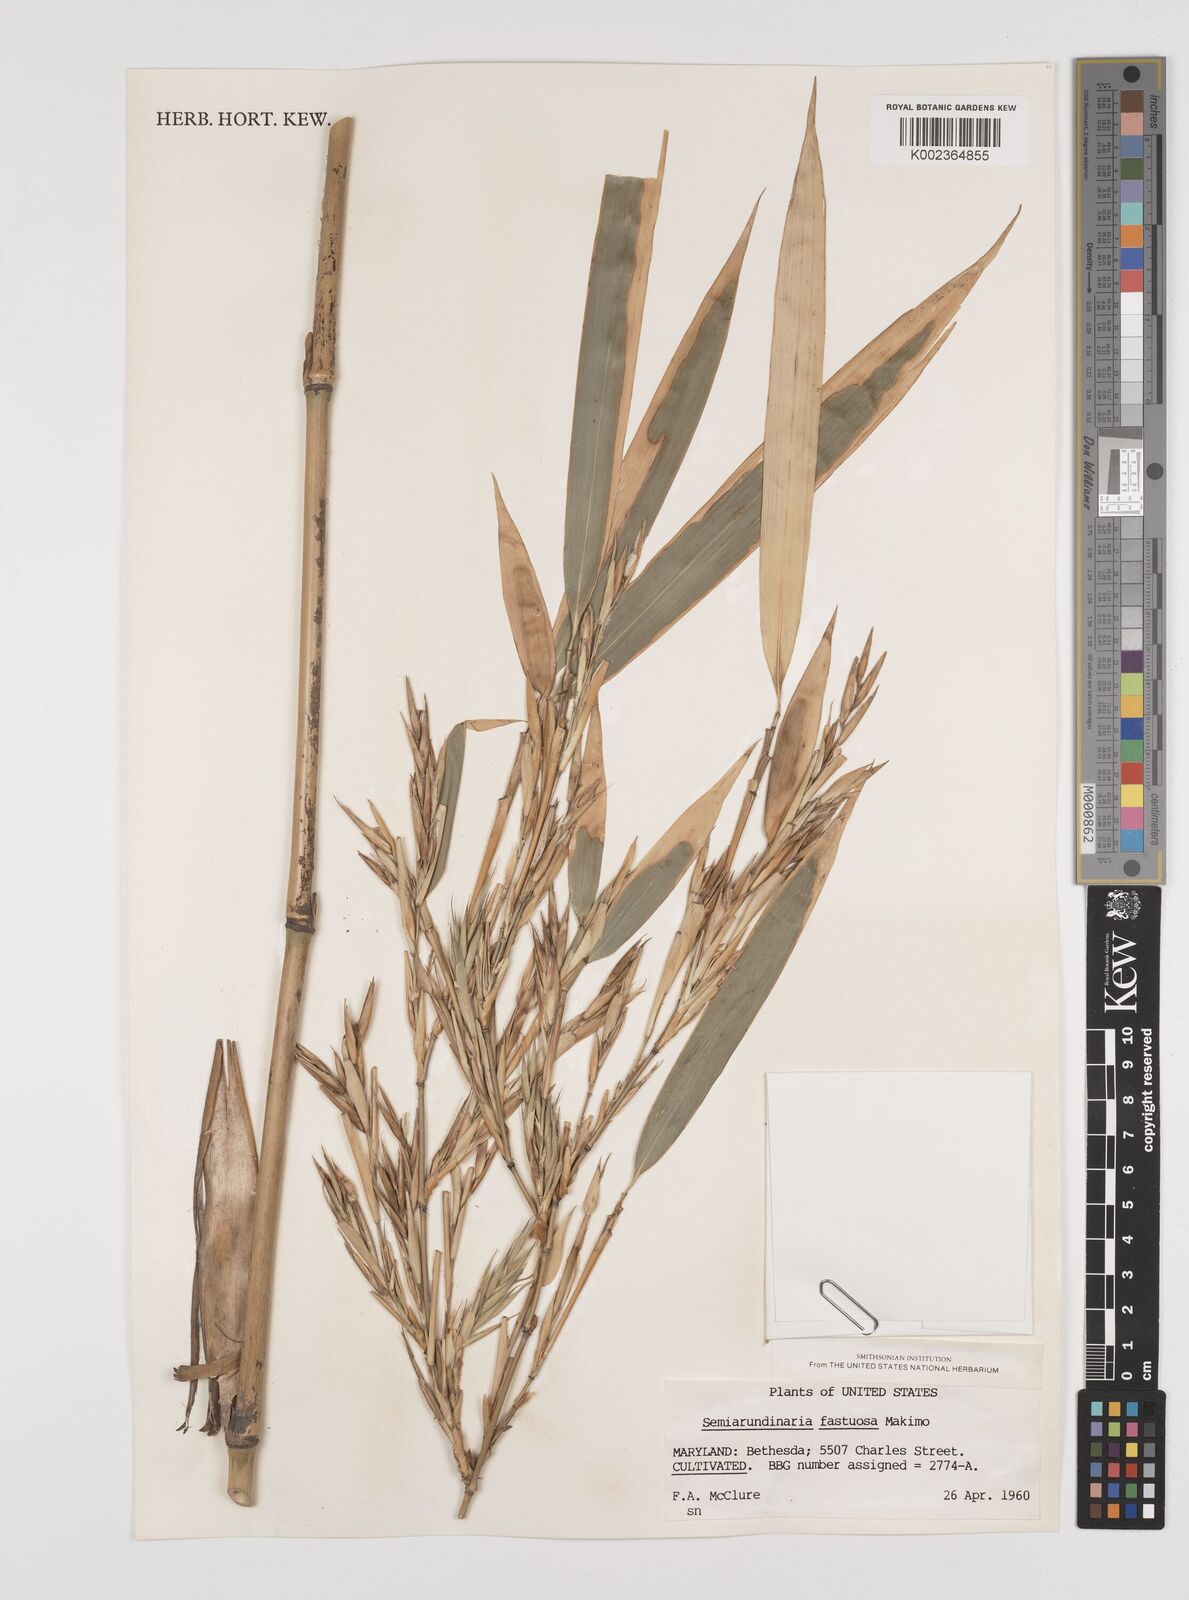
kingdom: Plantae
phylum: Tracheophyta
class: Liliopsida
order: Poales
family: Poaceae
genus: Semiarundinaria
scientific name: Semiarundinaria fastuosa
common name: Narihira bamboo
